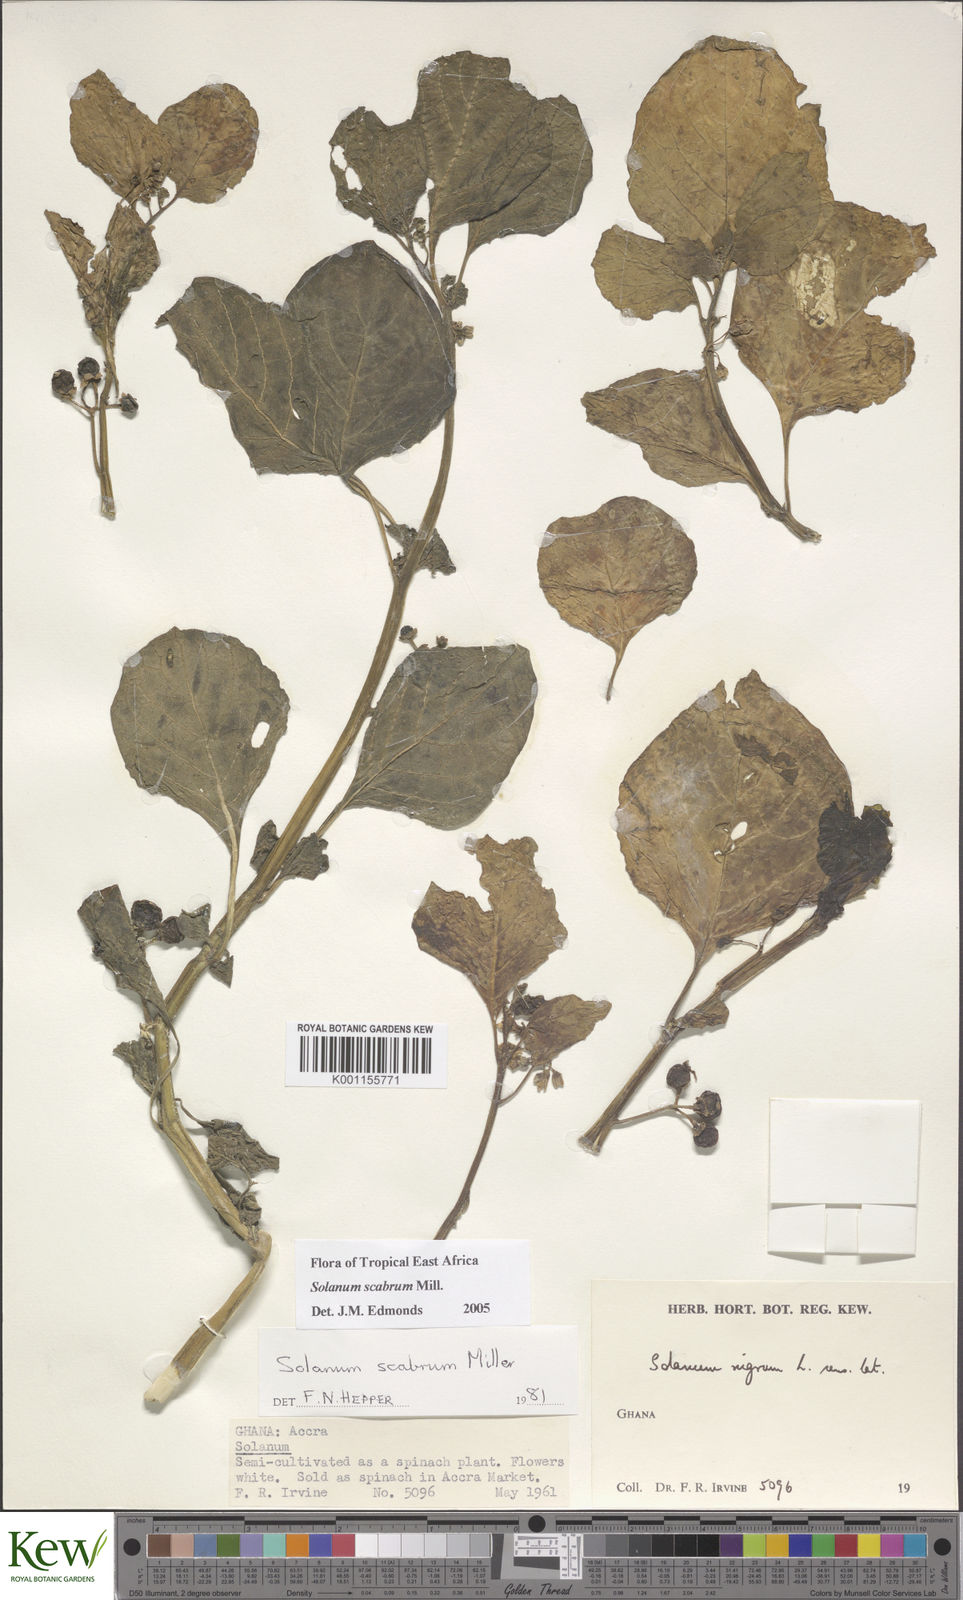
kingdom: Plantae
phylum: Tracheophyta
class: Magnoliopsida
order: Solanales
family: Solanaceae
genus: Solanum
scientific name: Solanum scabrum
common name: Garden-huckleberry
